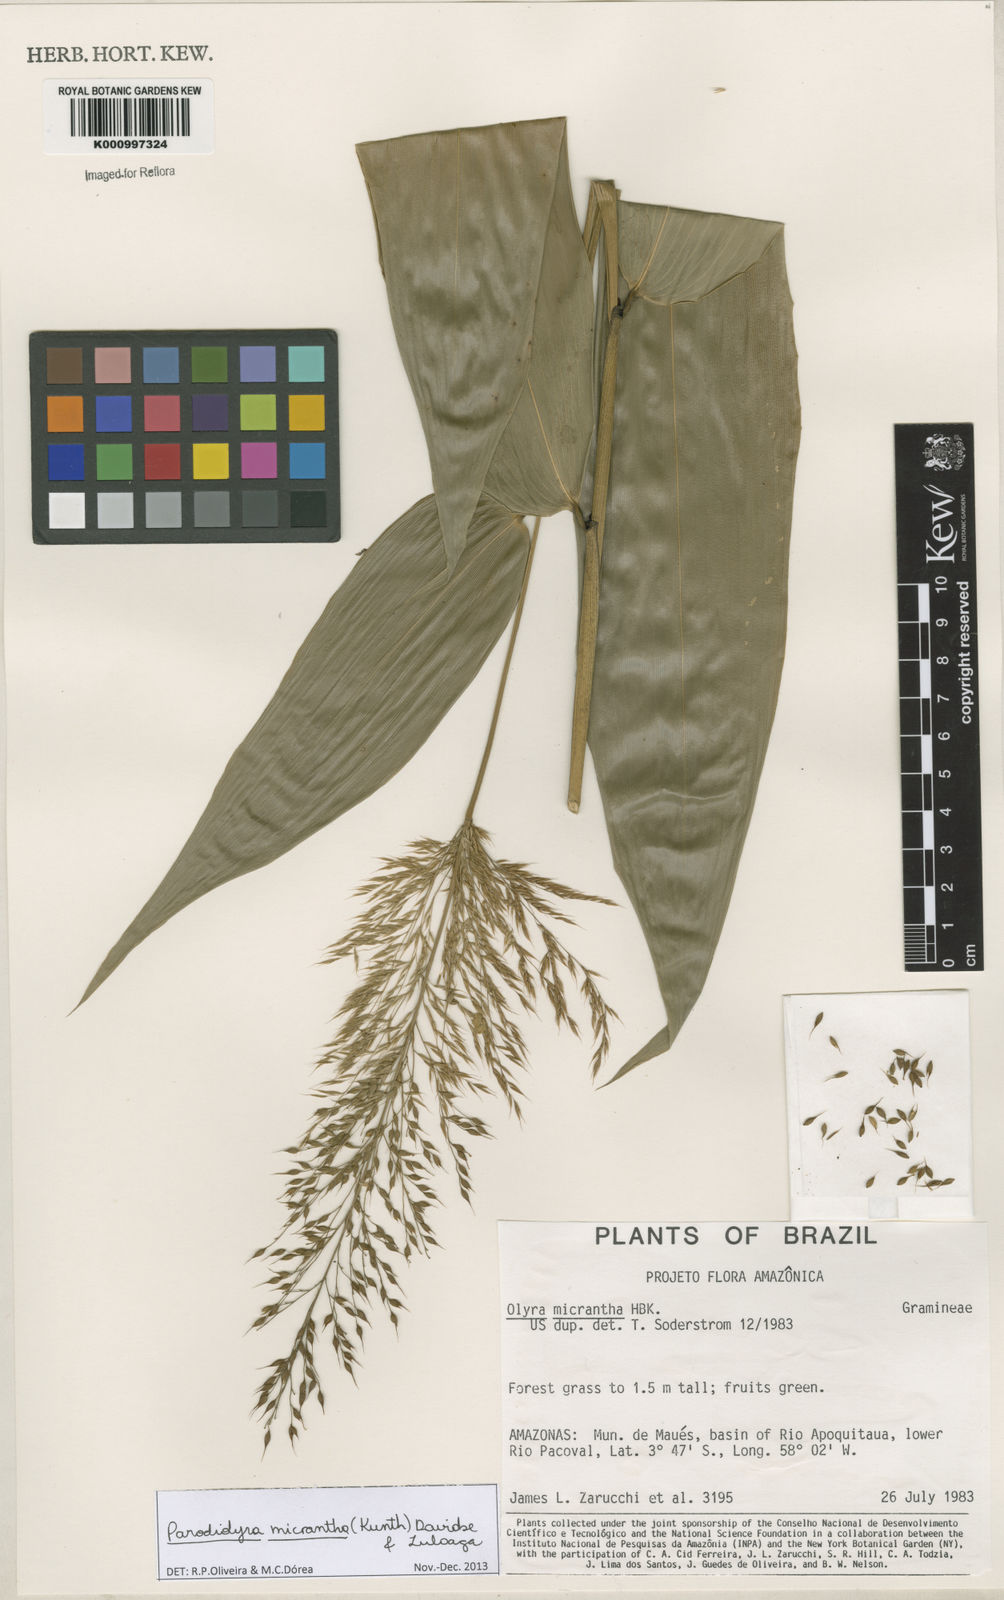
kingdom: Plantae
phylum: Tracheophyta
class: Liliopsida
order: Poales
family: Poaceae
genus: Taquara
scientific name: Taquara micrantha
